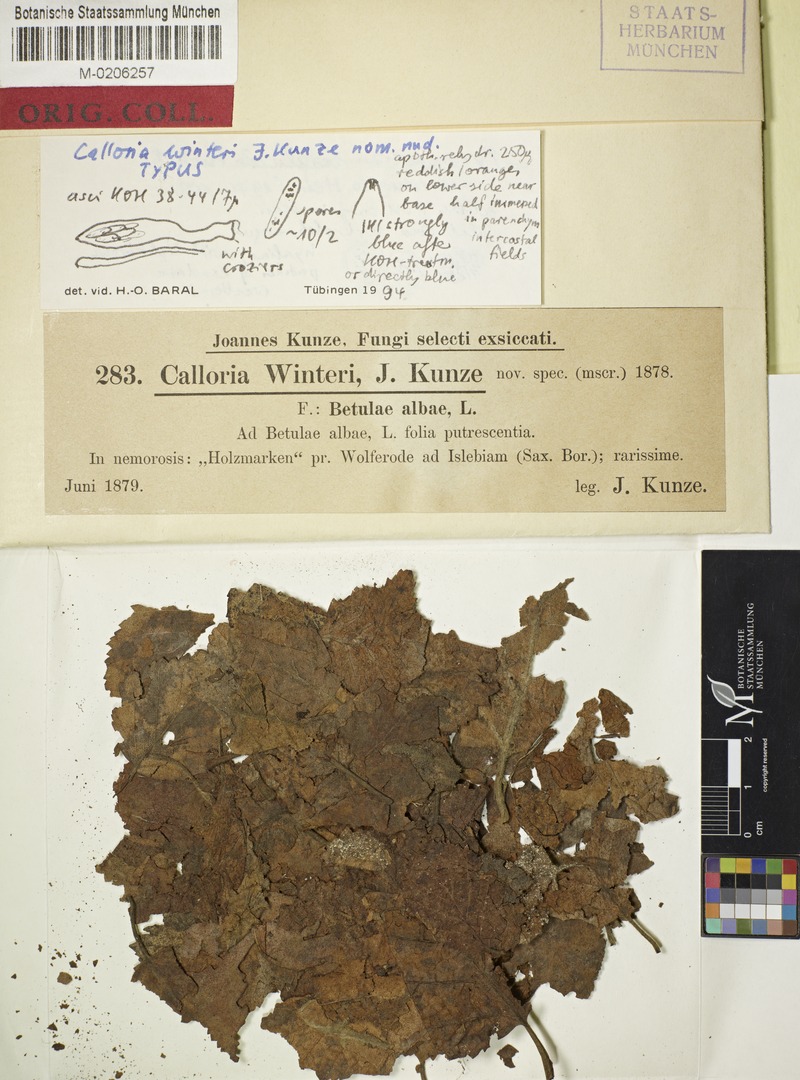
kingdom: Plantae
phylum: Tracheophyta
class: Magnoliopsida
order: Fagales
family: Betulaceae
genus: Betula
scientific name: Betula pubescens
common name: Downy birch
